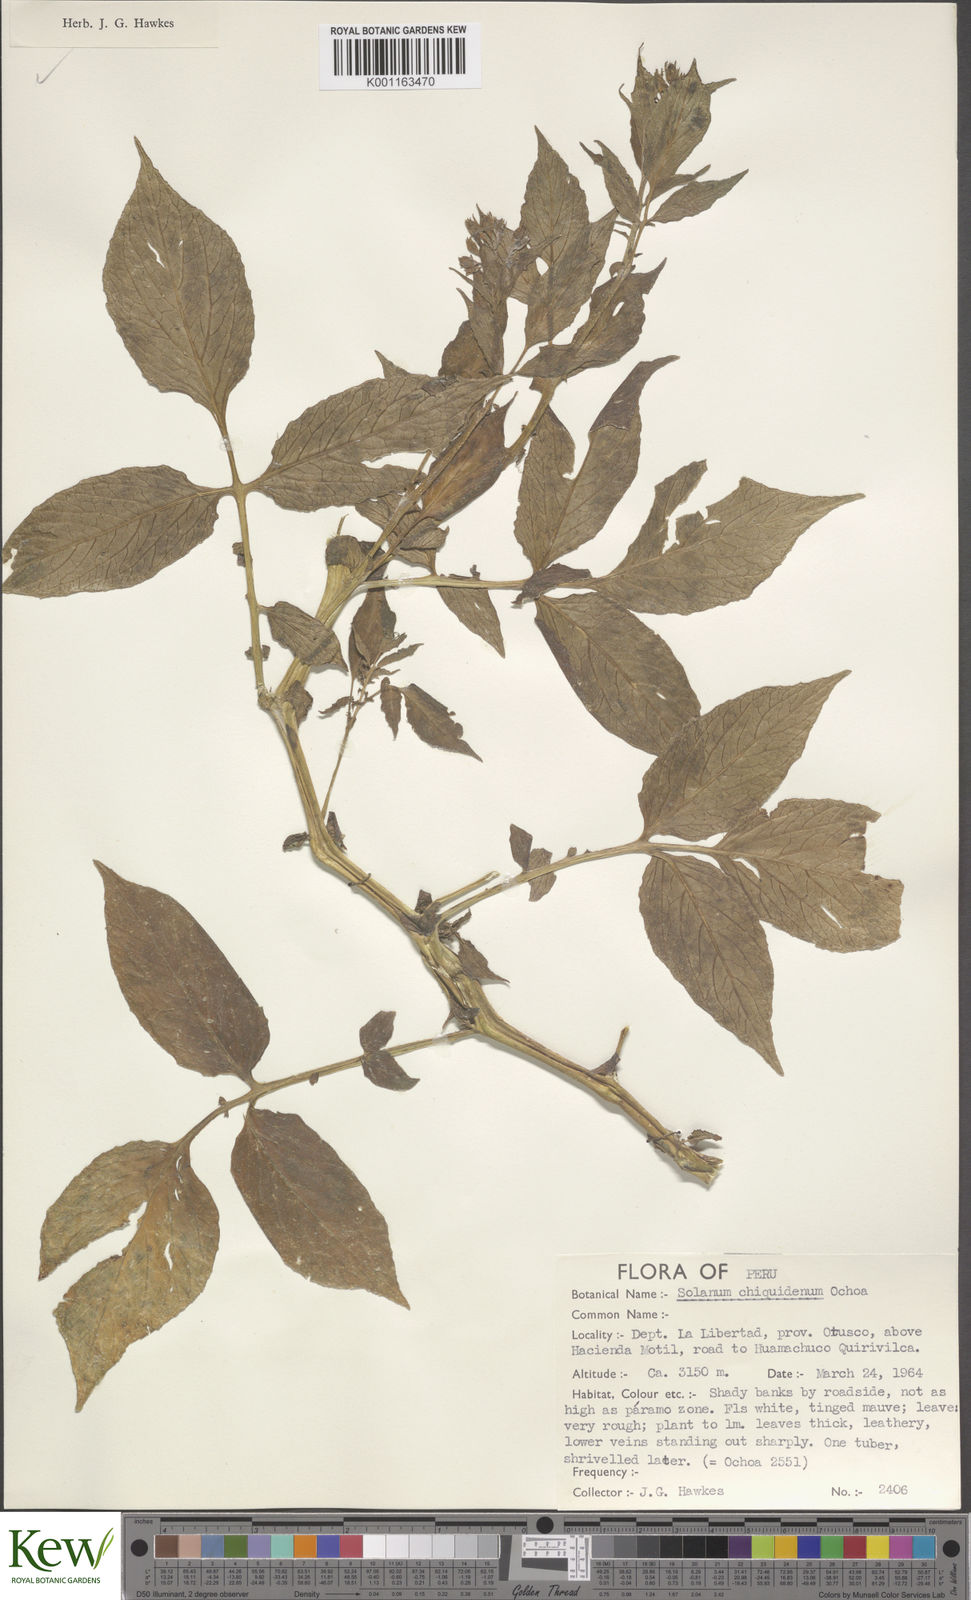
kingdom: Plantae
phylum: Tracheophyta
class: Magnoliopsida
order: Solanales
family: Solanaceae
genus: Solanum
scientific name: Solanum chiquidenum
